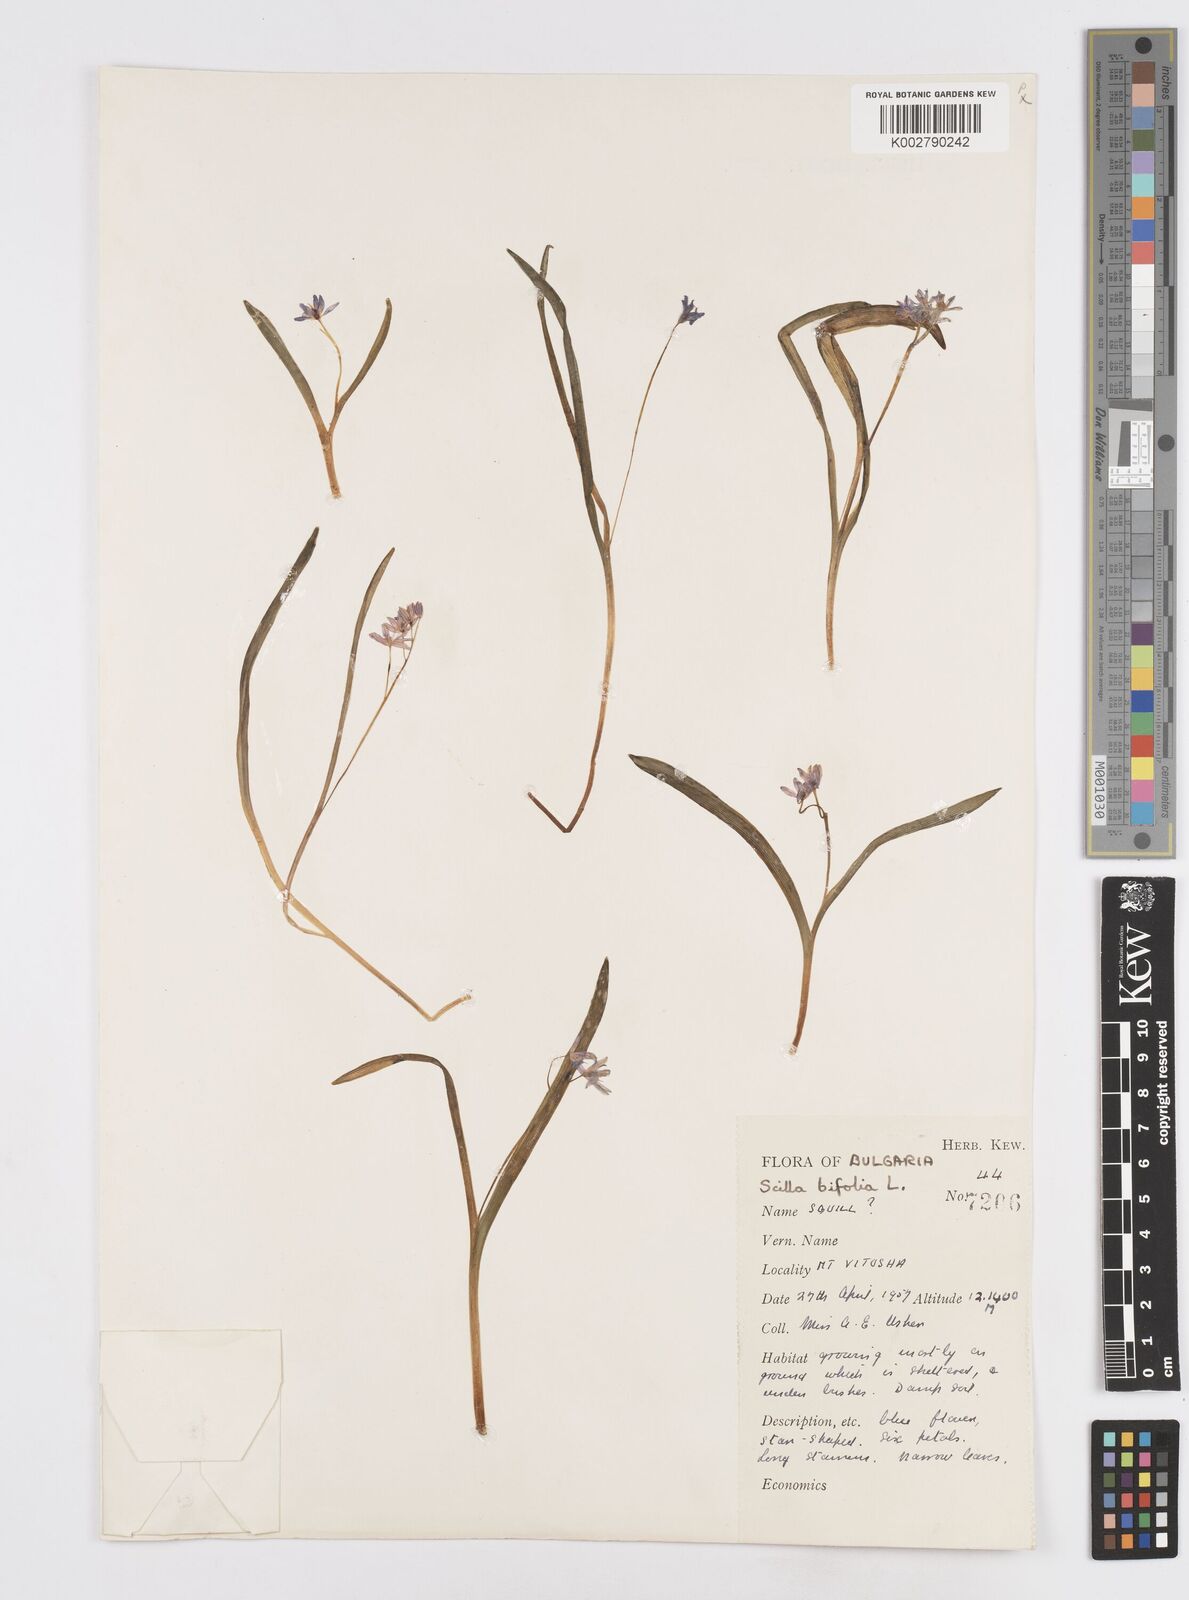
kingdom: Plantae
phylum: Tracheophyta
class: Liliopsida
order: Asparagales
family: Asparagaceae
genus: Scilla
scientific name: Scilla bifolia
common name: Alpine squill
